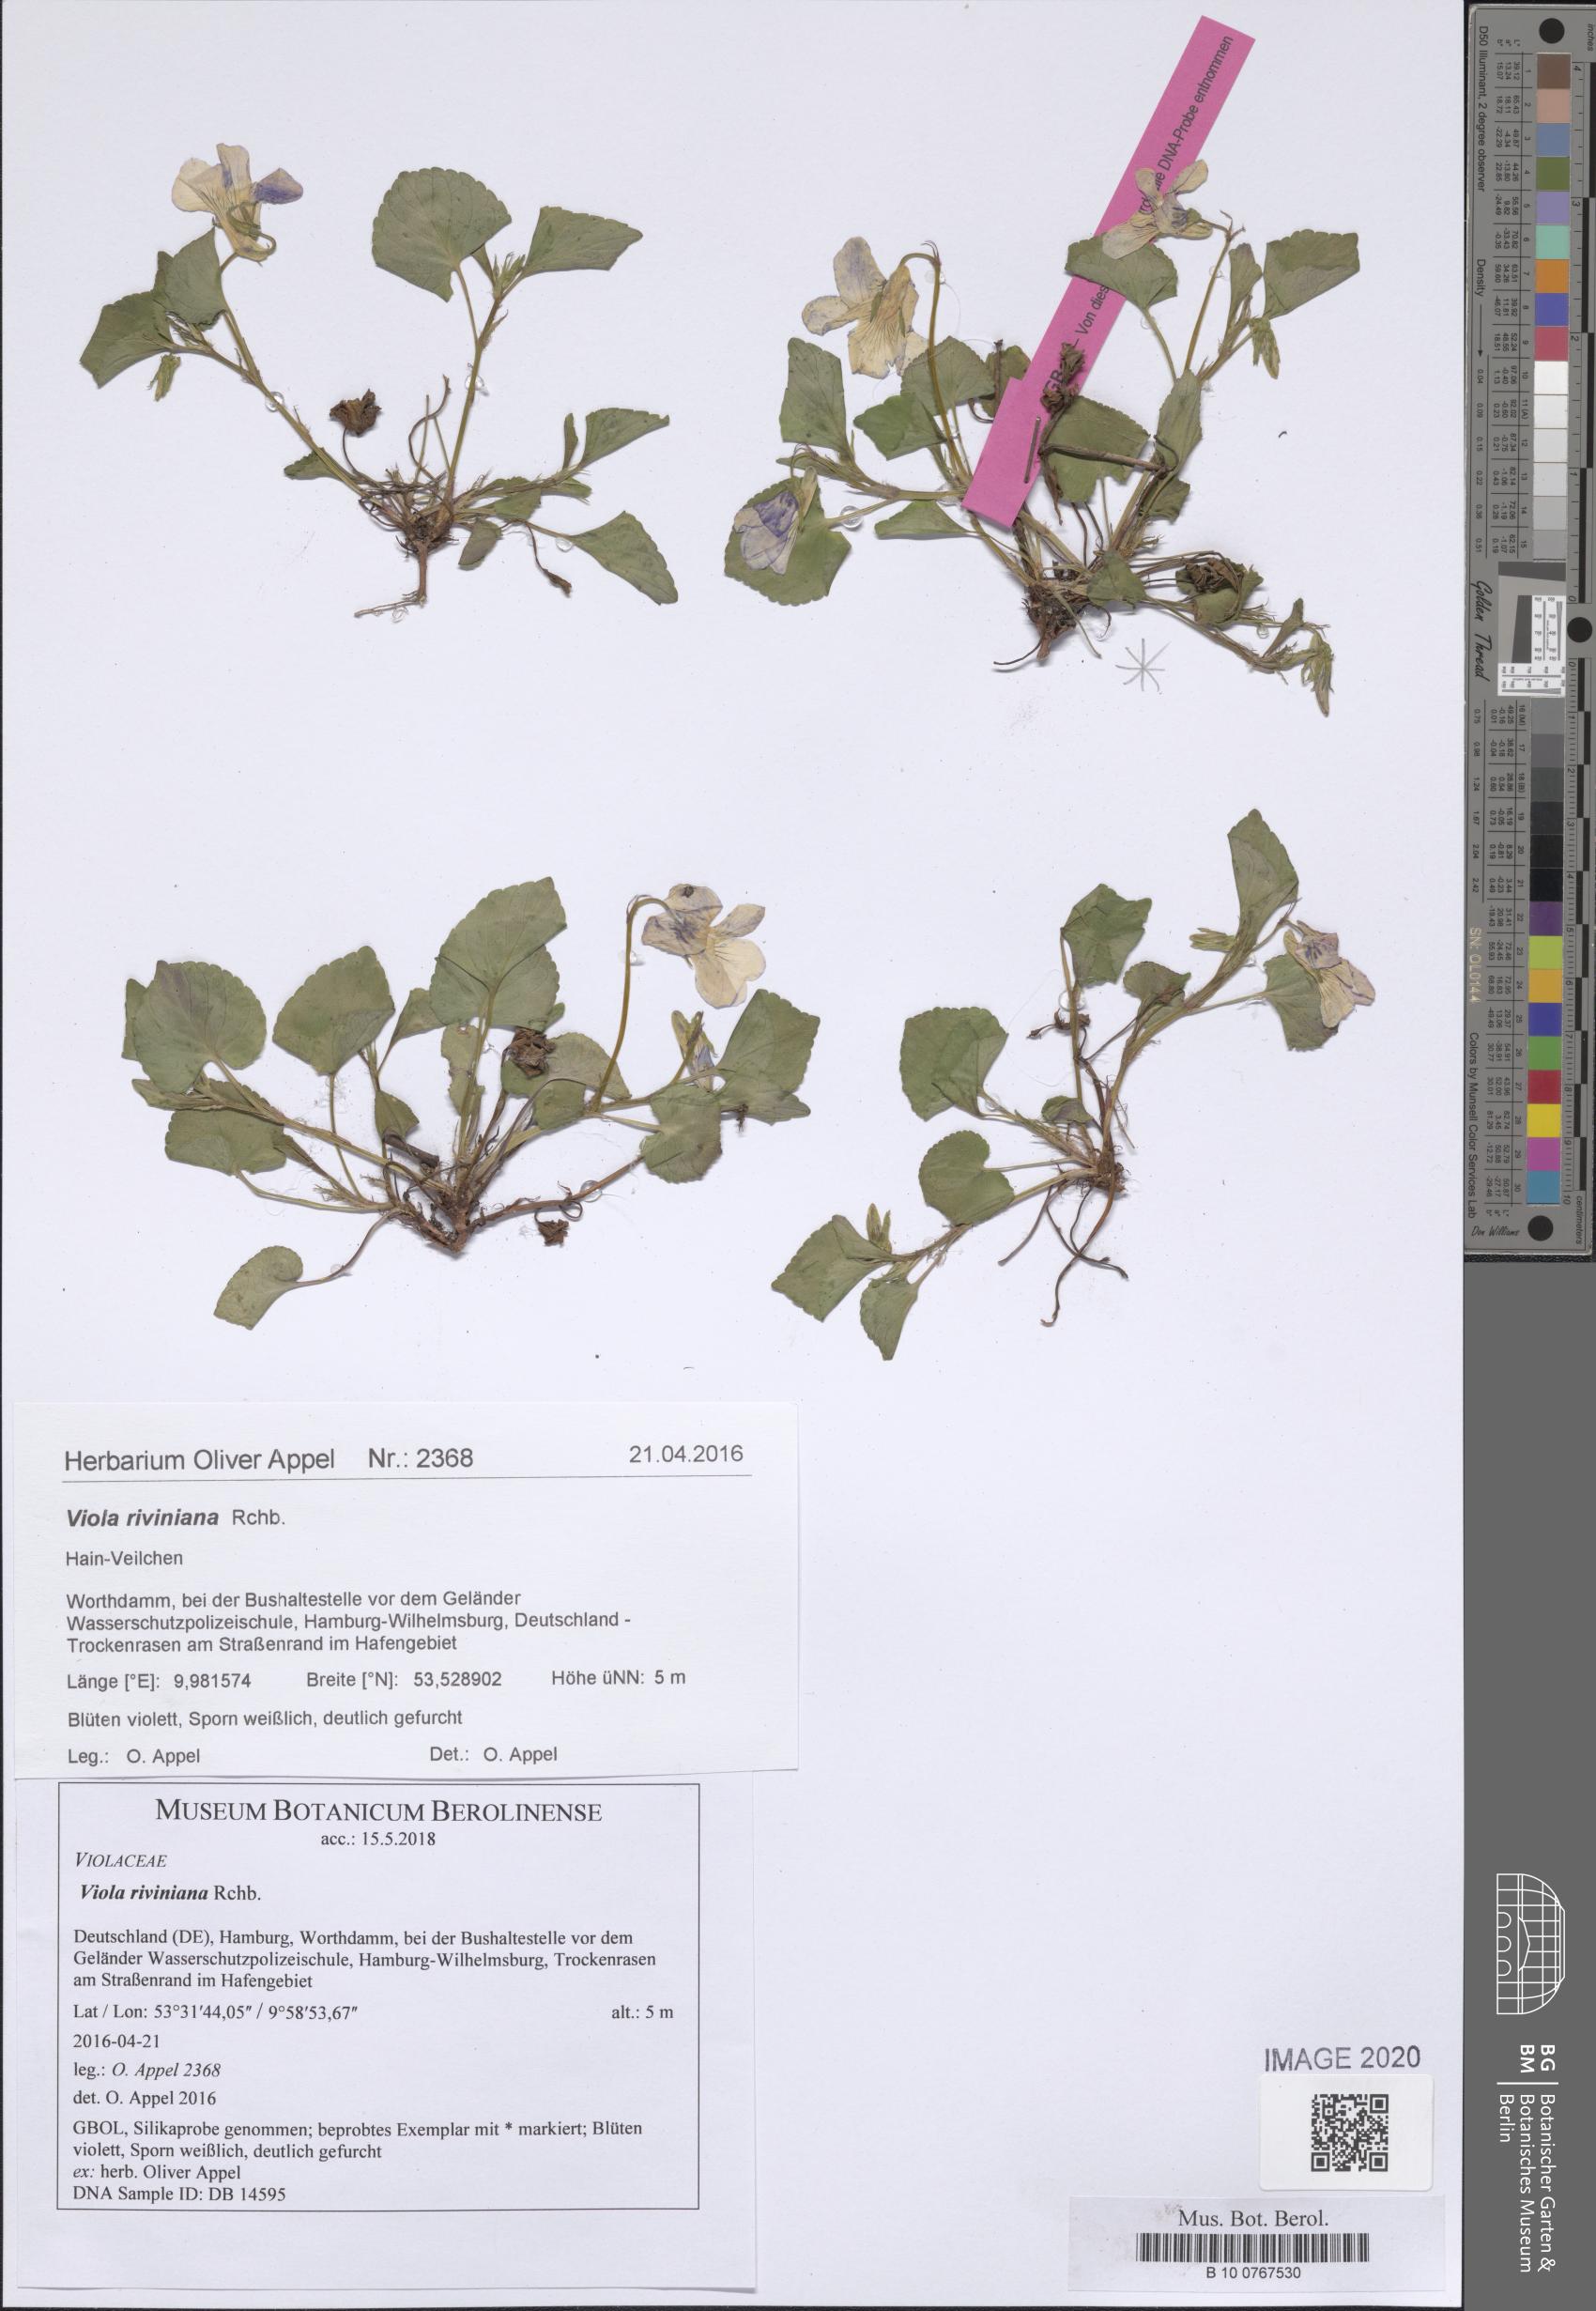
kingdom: Plantae
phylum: Tracheophyta
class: Magnoliopsida
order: Malpighiales
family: Violaceae
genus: Viola
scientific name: Viola riviniana
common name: Common dog-violet
